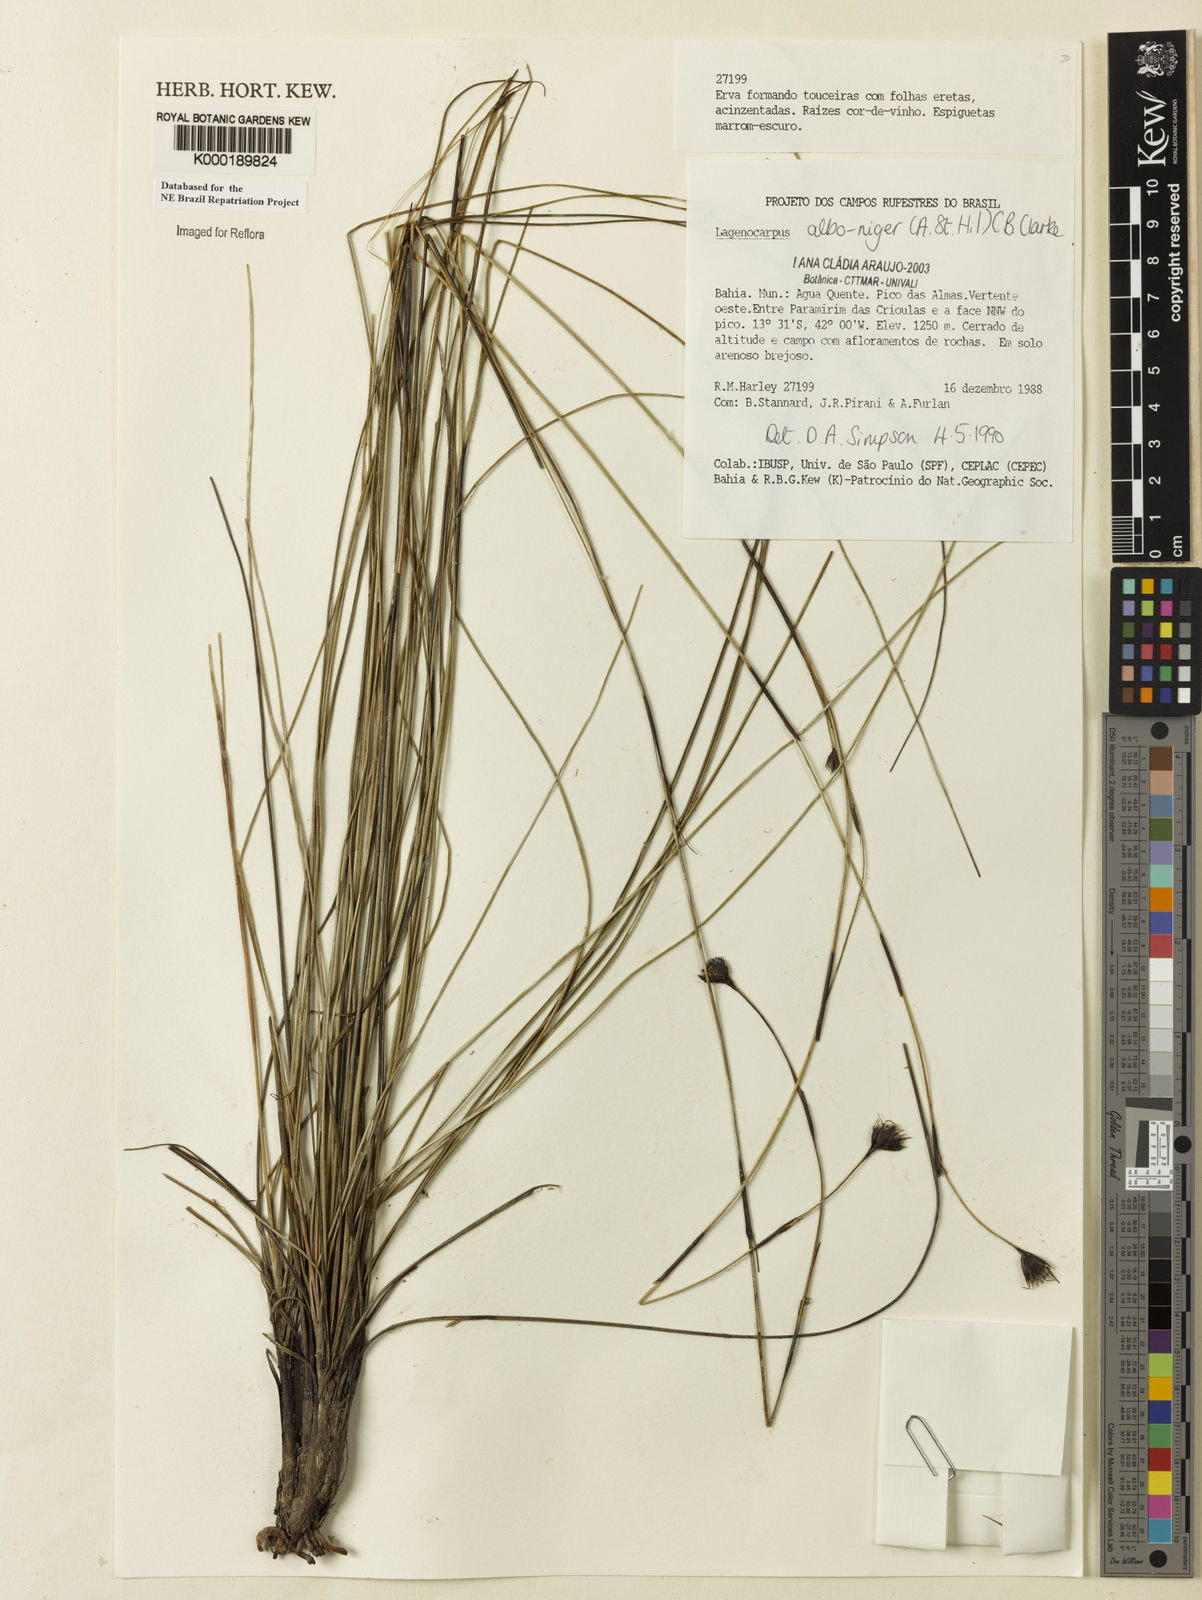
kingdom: Plantae
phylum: Tracheophyta
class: Liliopsida
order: Poales
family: Cyperaceae
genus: Lagenocarpus
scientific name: Lagenocarpus alboniger
